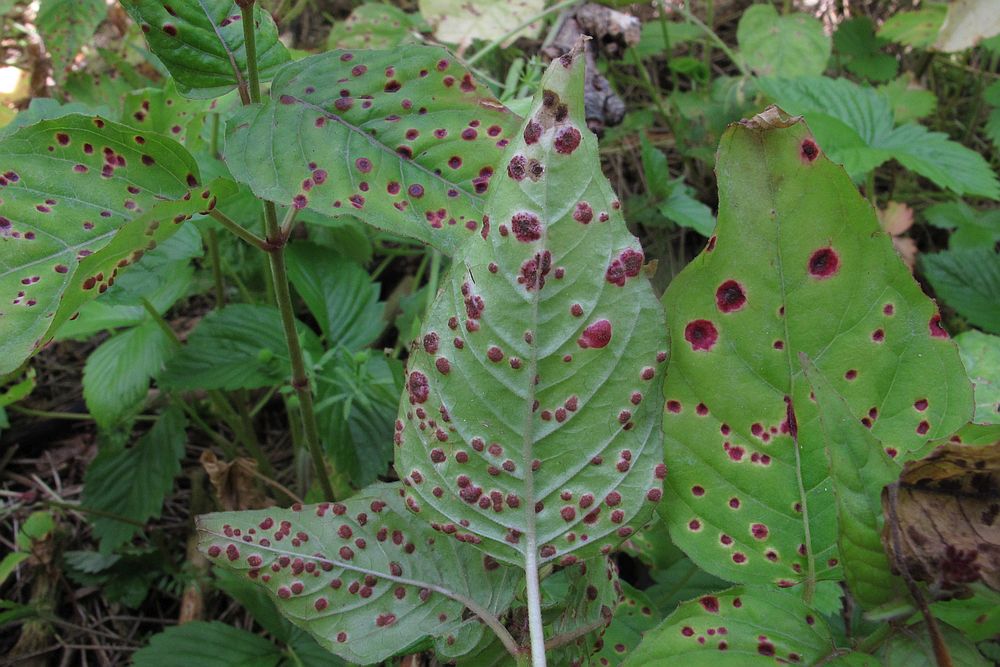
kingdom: Fungi
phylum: Basidiomycota
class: Pucciniomycetes
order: Pucciniales
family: Pucciniaceae
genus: Puccinia
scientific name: Puccinia circaeae
